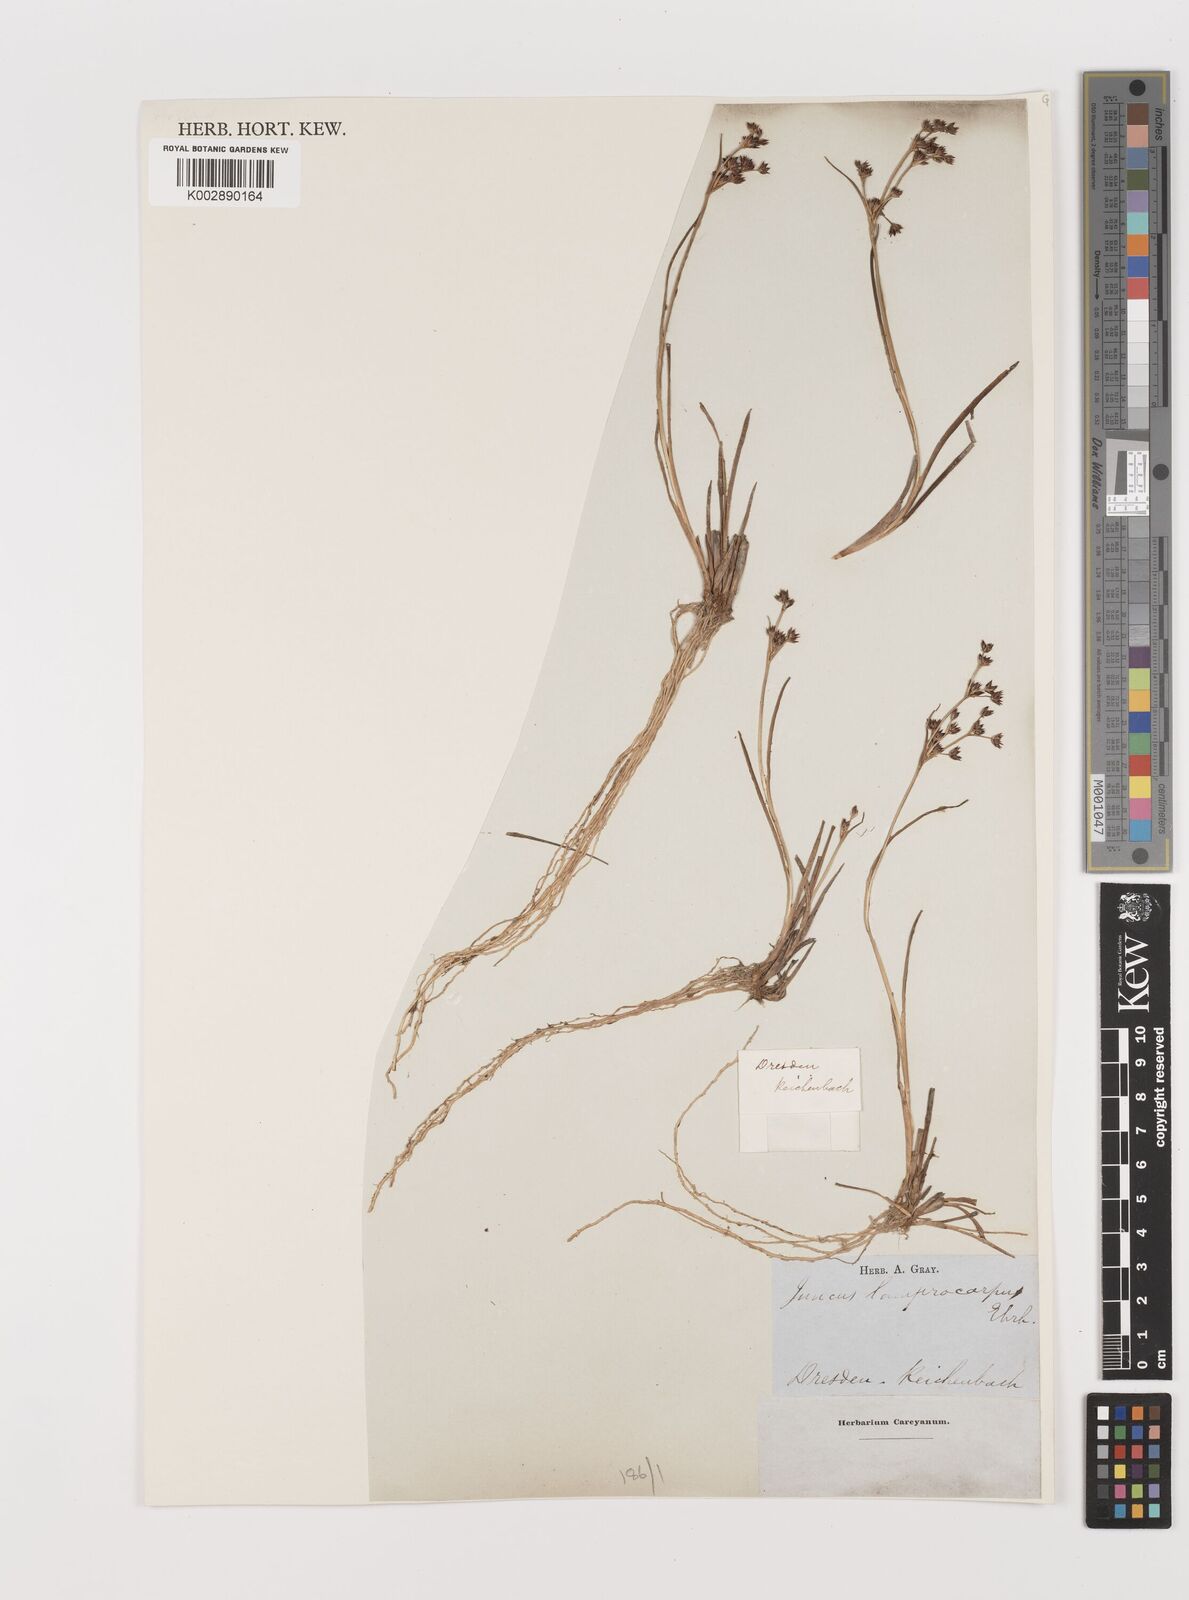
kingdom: Plantae
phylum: Tracheophyta
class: Liliopsida
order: Poales
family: Juncaceae
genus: Juncus
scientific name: Juncus articulatus
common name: Jointed rush
